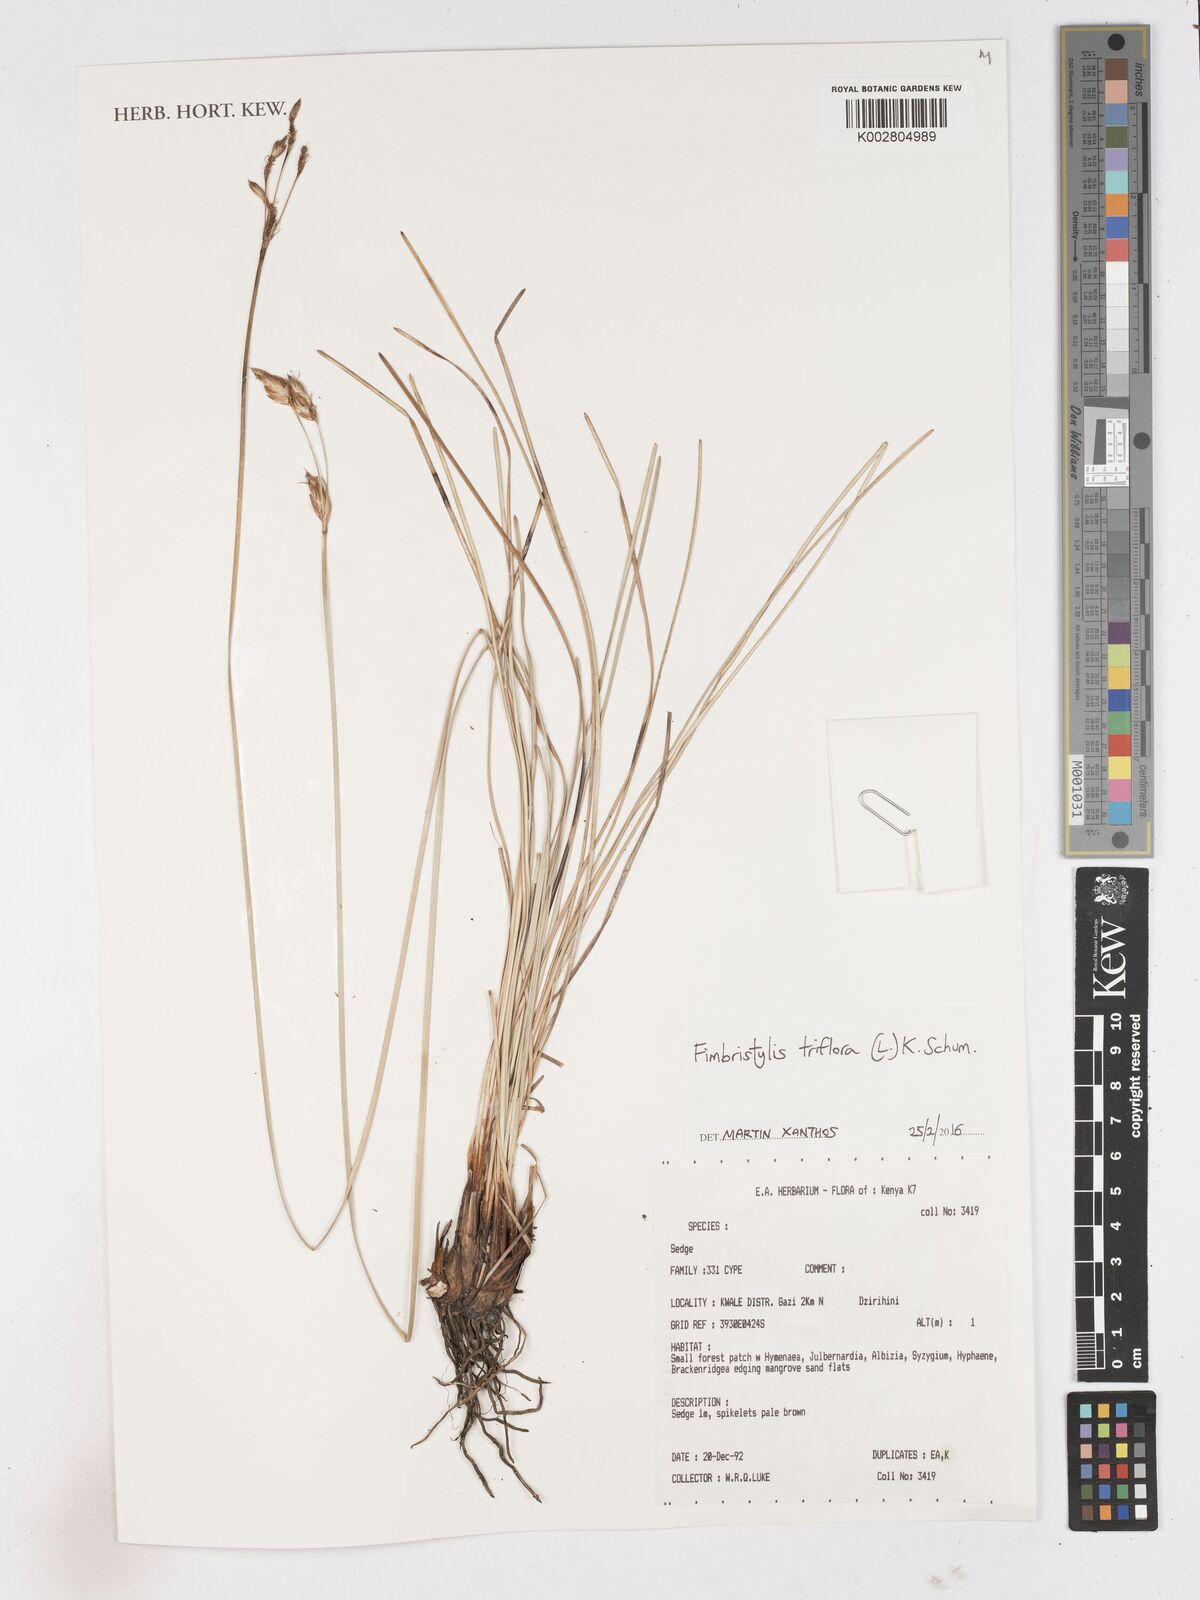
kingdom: Plantae
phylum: Tracheophyta
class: Liliopsida
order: Poales
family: Cyperaceae
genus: Abildgaardia
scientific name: Abildgaardia triflora
